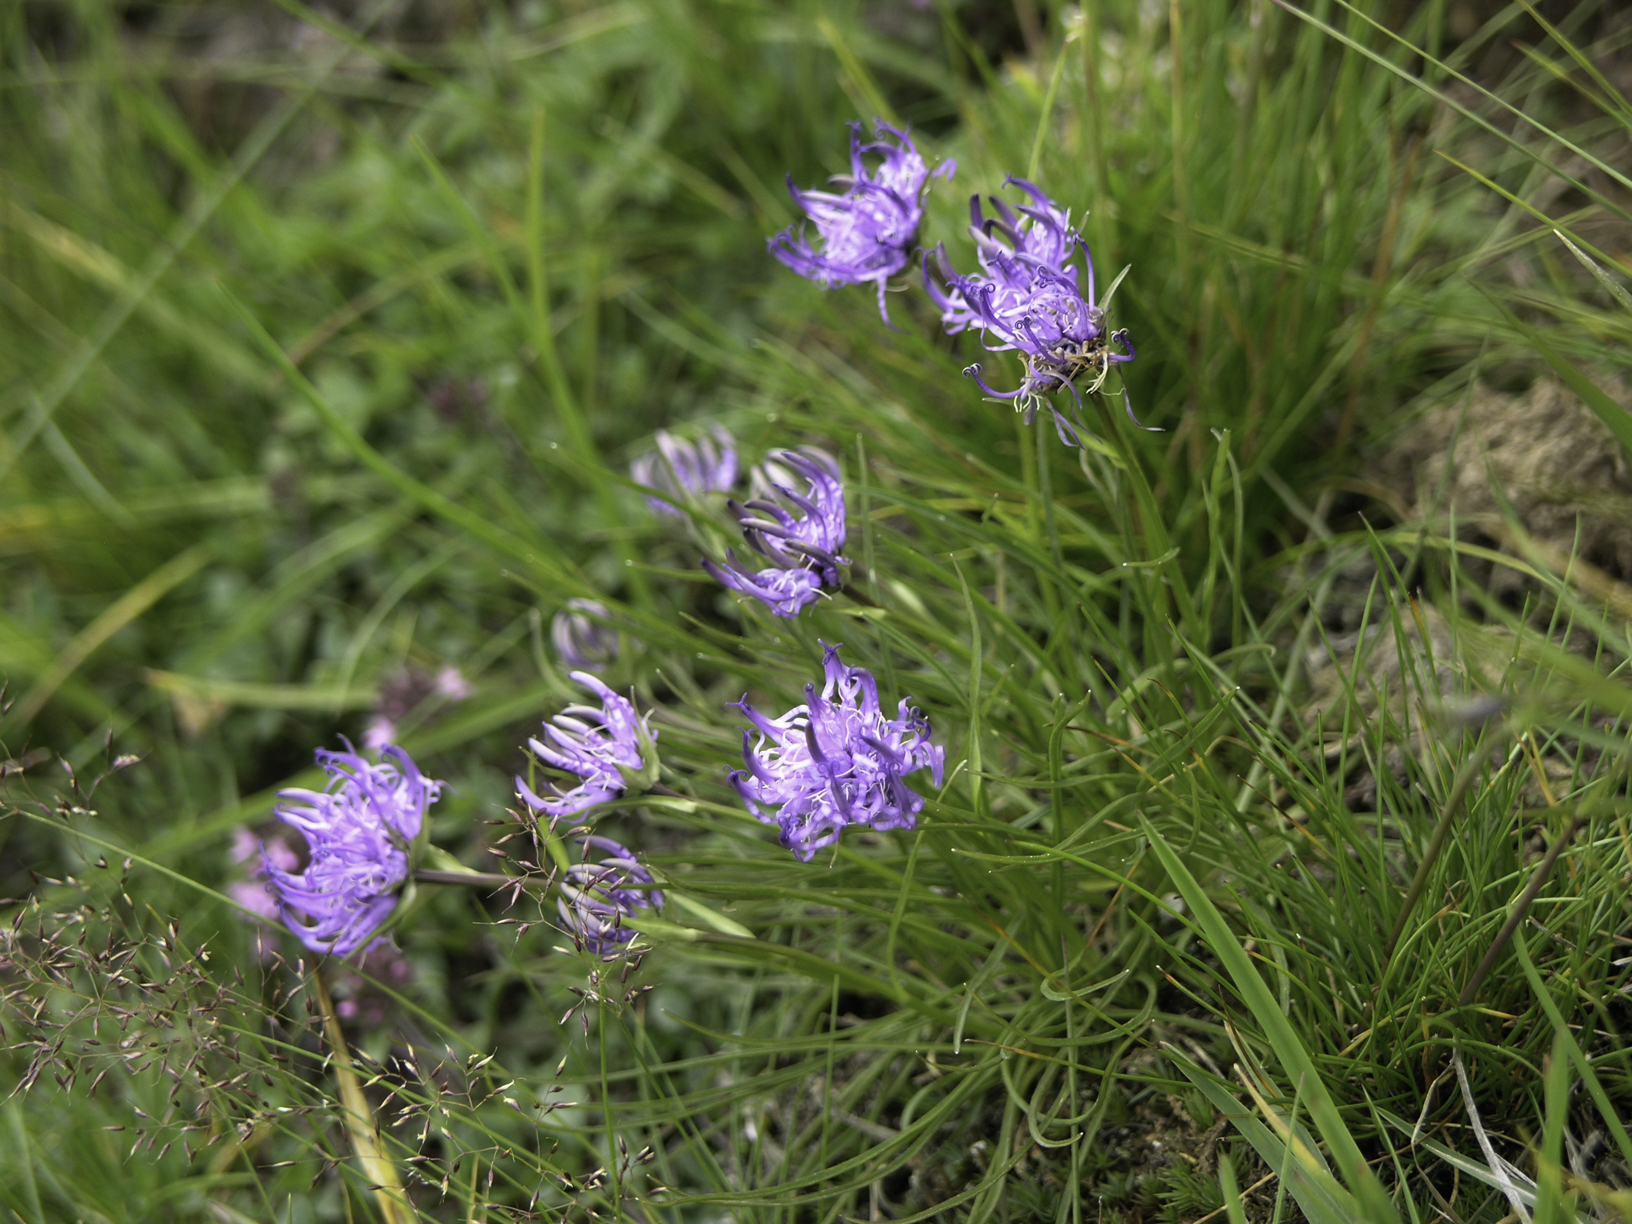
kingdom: Plantae
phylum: Tracheophyta
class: Magnoliopsida
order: Asterales
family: Campanulaceae
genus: Campanula
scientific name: Campanula
